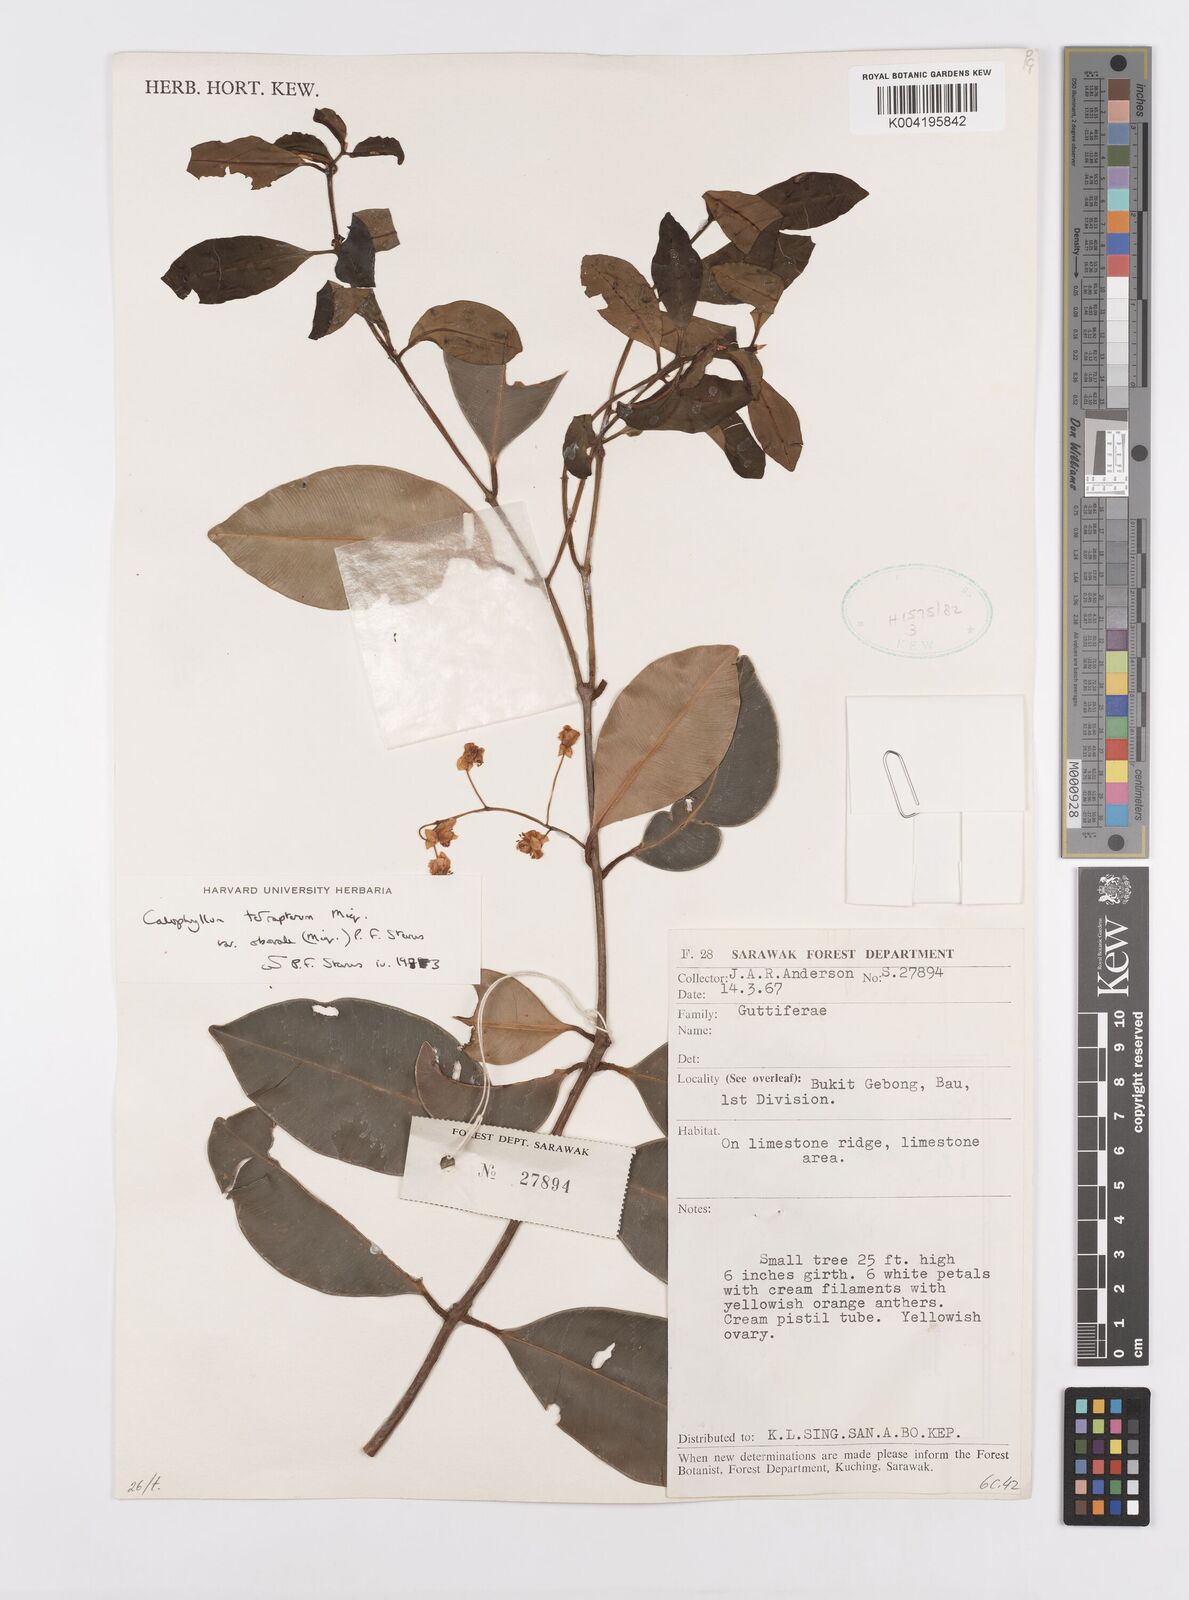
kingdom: Plantae
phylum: Tracheophyta
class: Magnoliopsida
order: Malpighiales
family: Calophyllaceae
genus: Calophyllum
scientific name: Calophyllum tetrapterum
